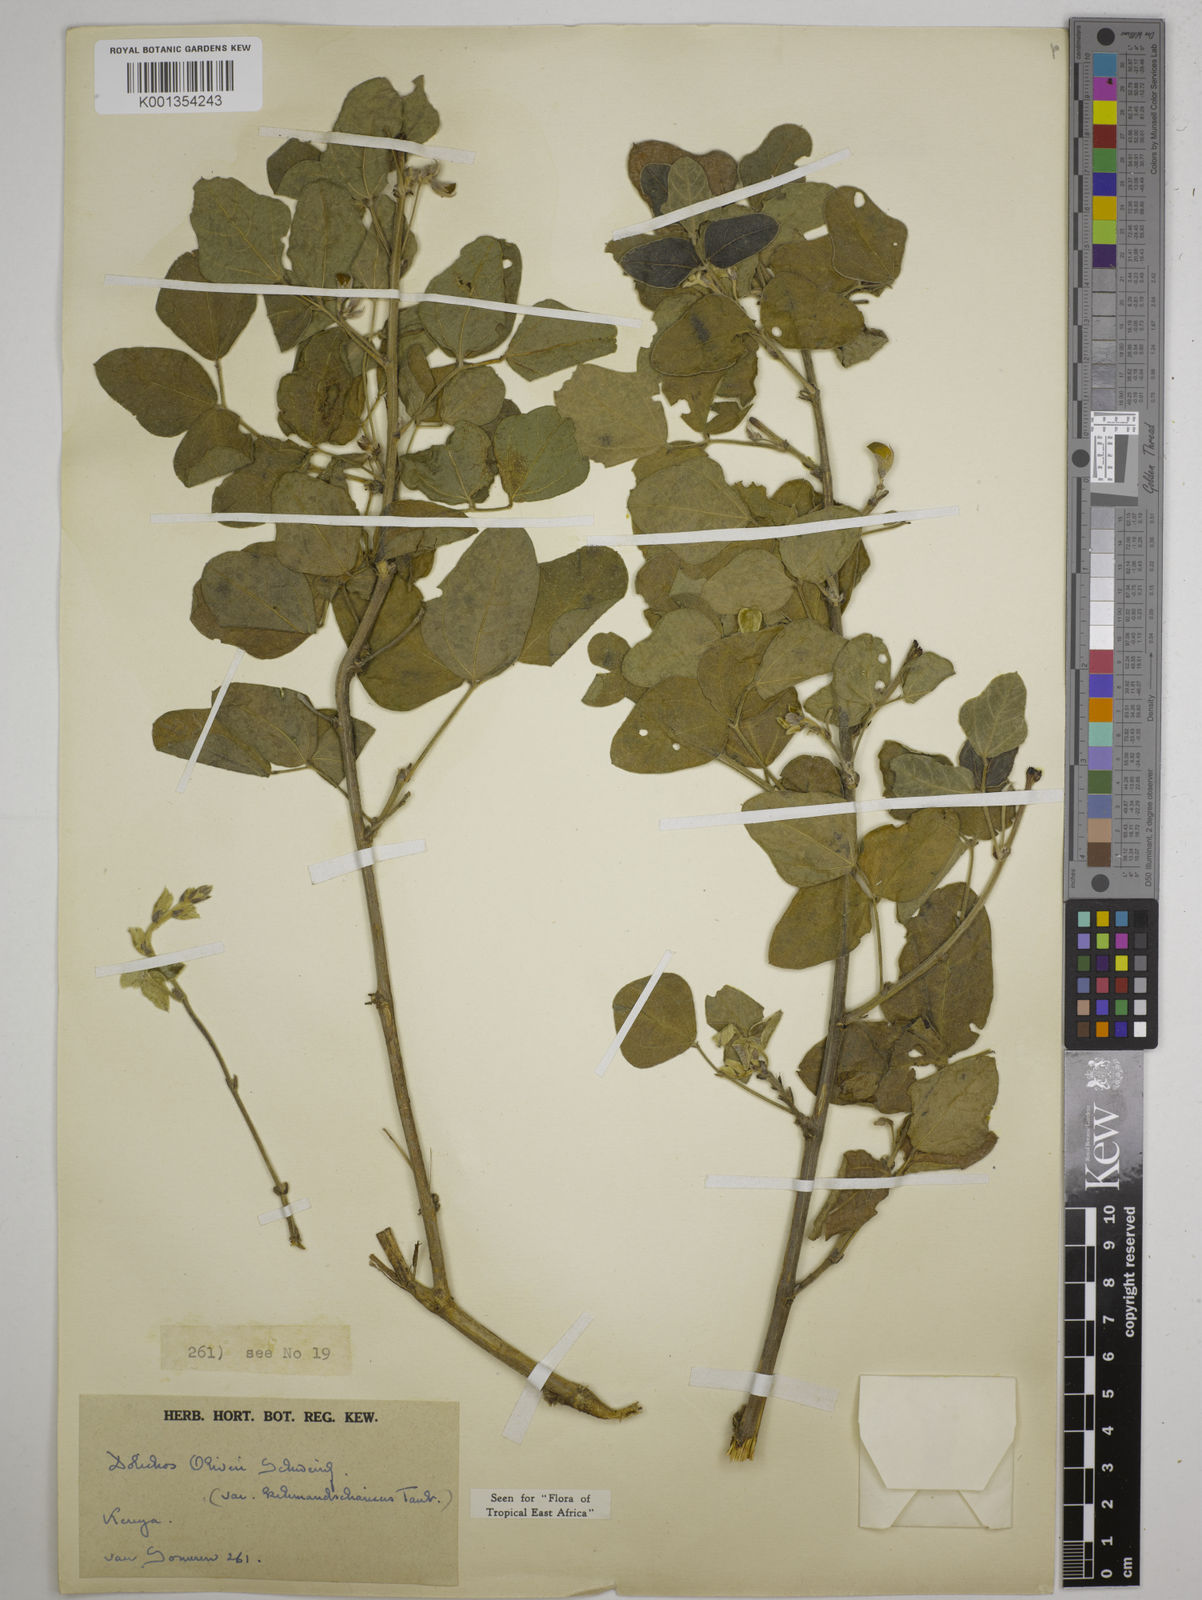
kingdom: Plantae
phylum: Tracheophyta
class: Magnoliopsida
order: Fabales
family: Fabaceae
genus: Dolichos
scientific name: Dolichos oliveri
